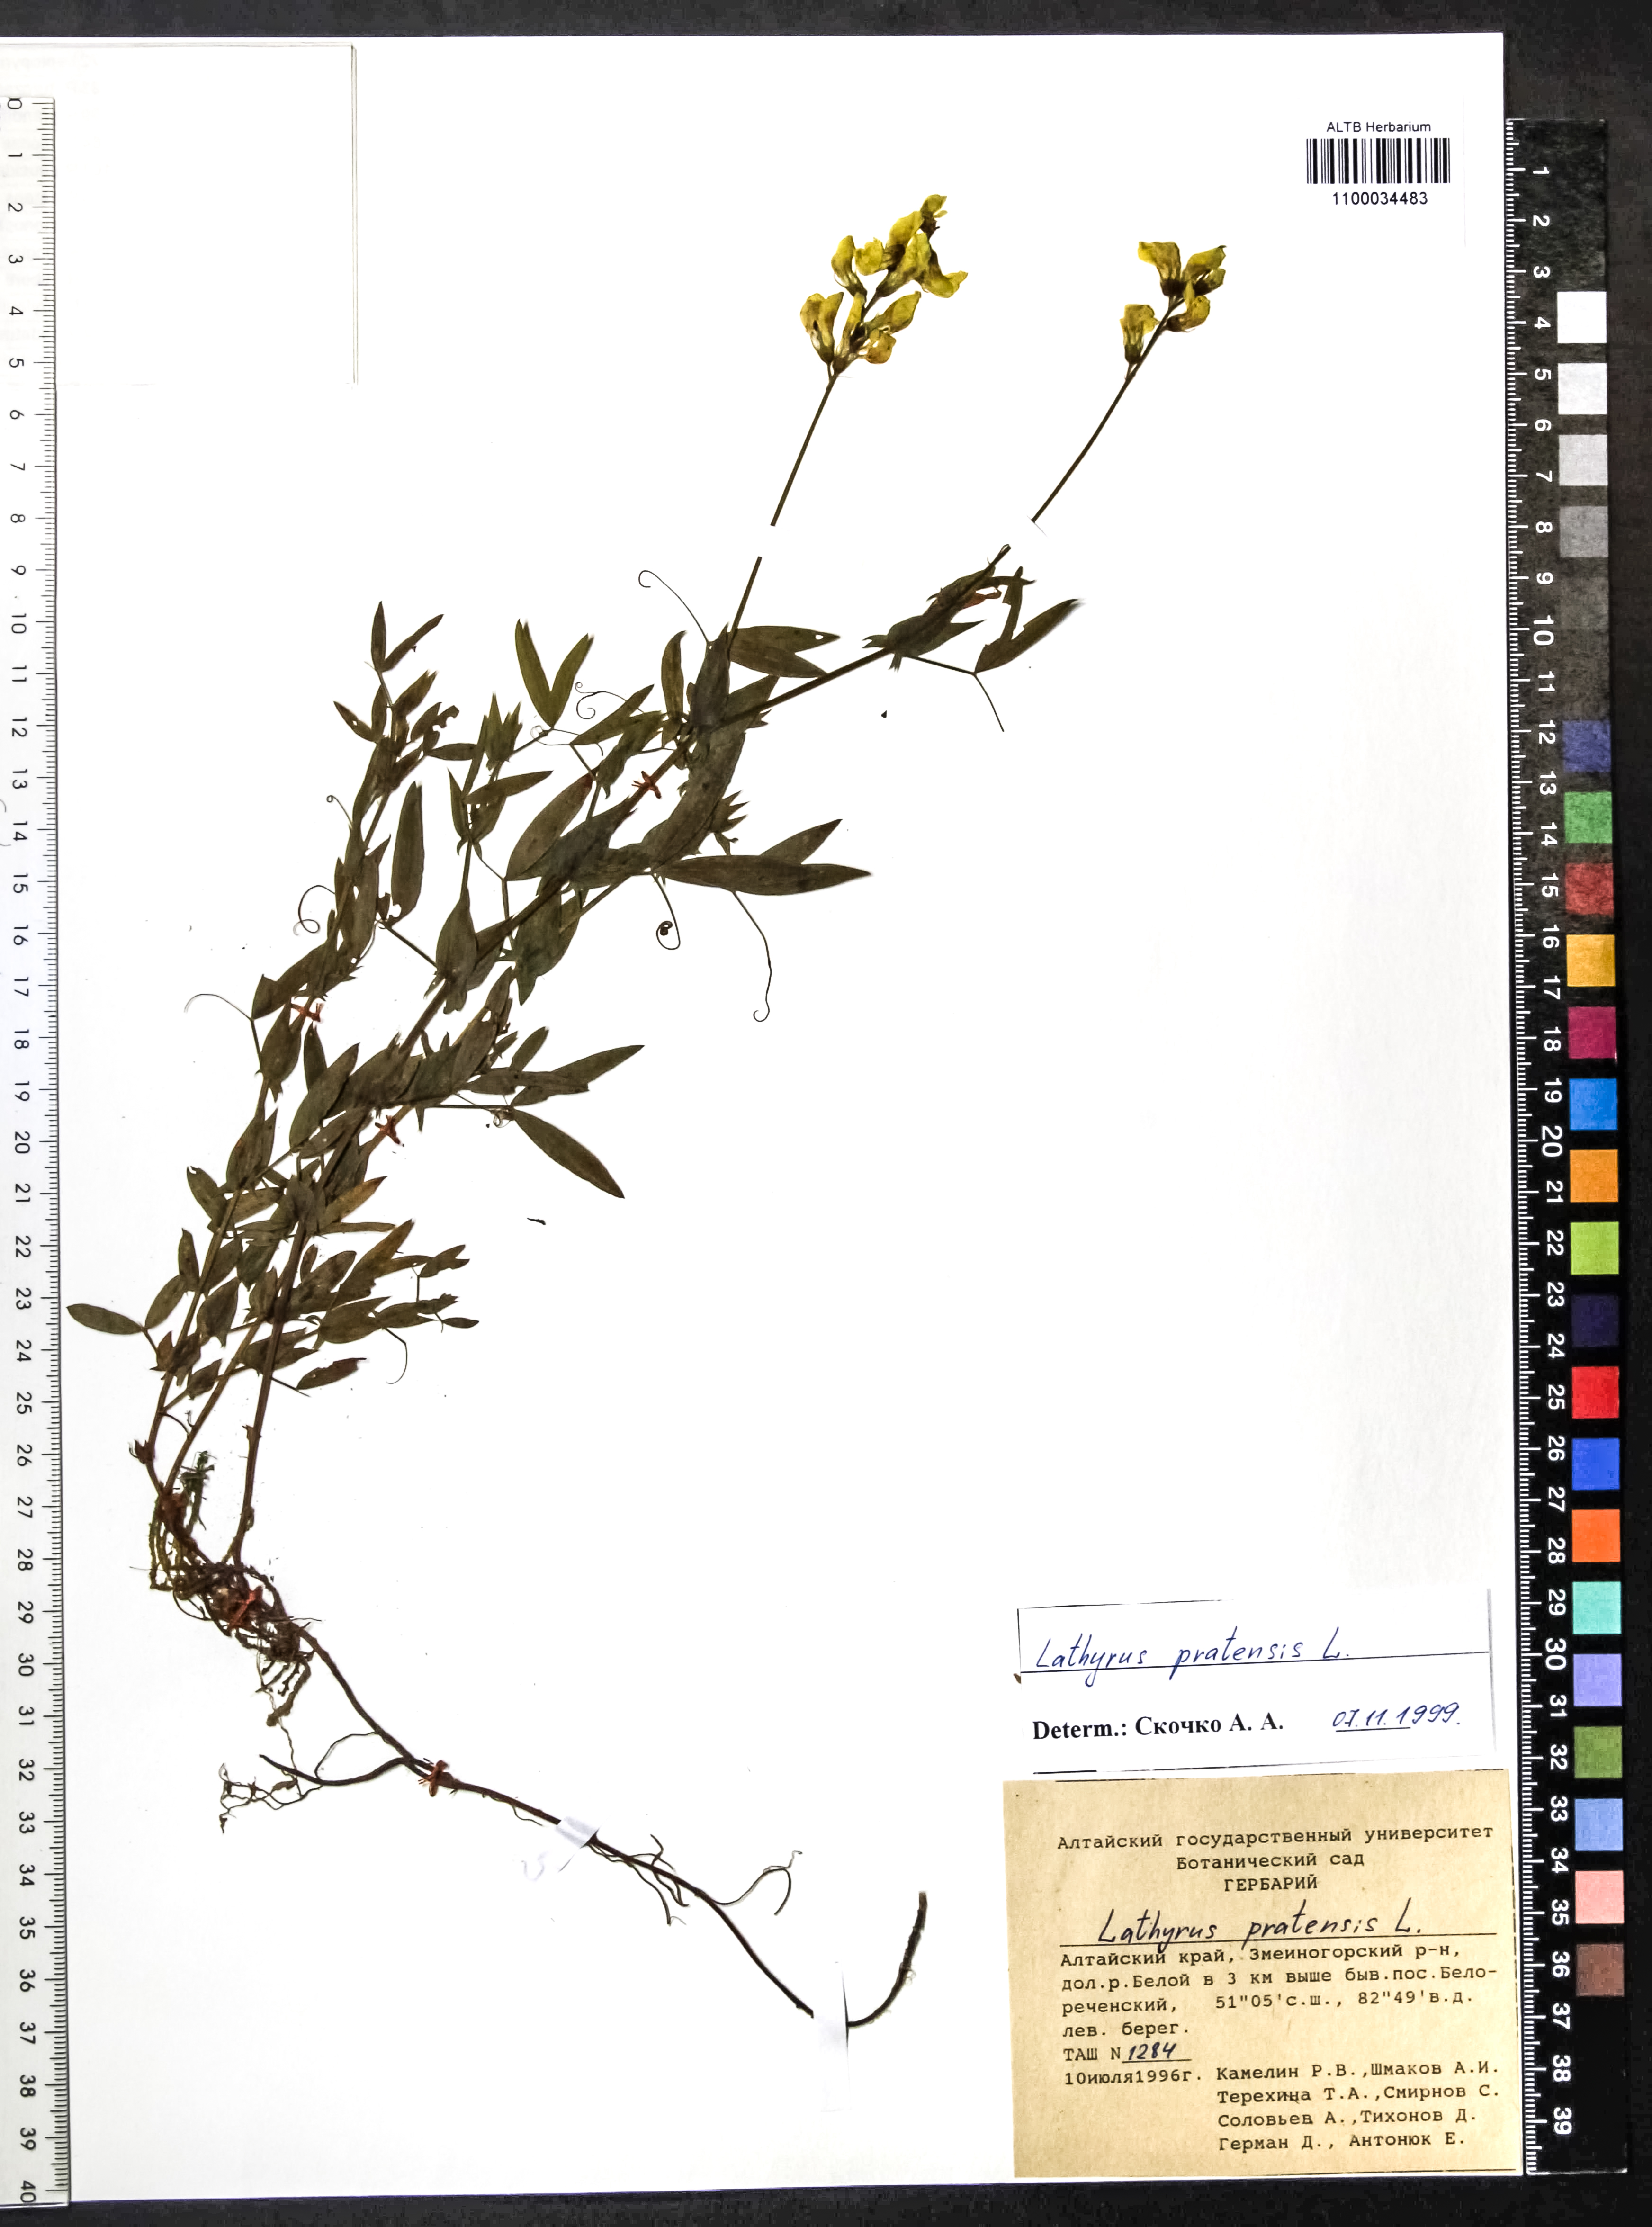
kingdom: Plantae
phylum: Tracheophyta
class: Magnoliopsida
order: Fabales
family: Fabaceae
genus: Lathyrus
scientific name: Lathyrus pratensis
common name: Meadow vetchling
